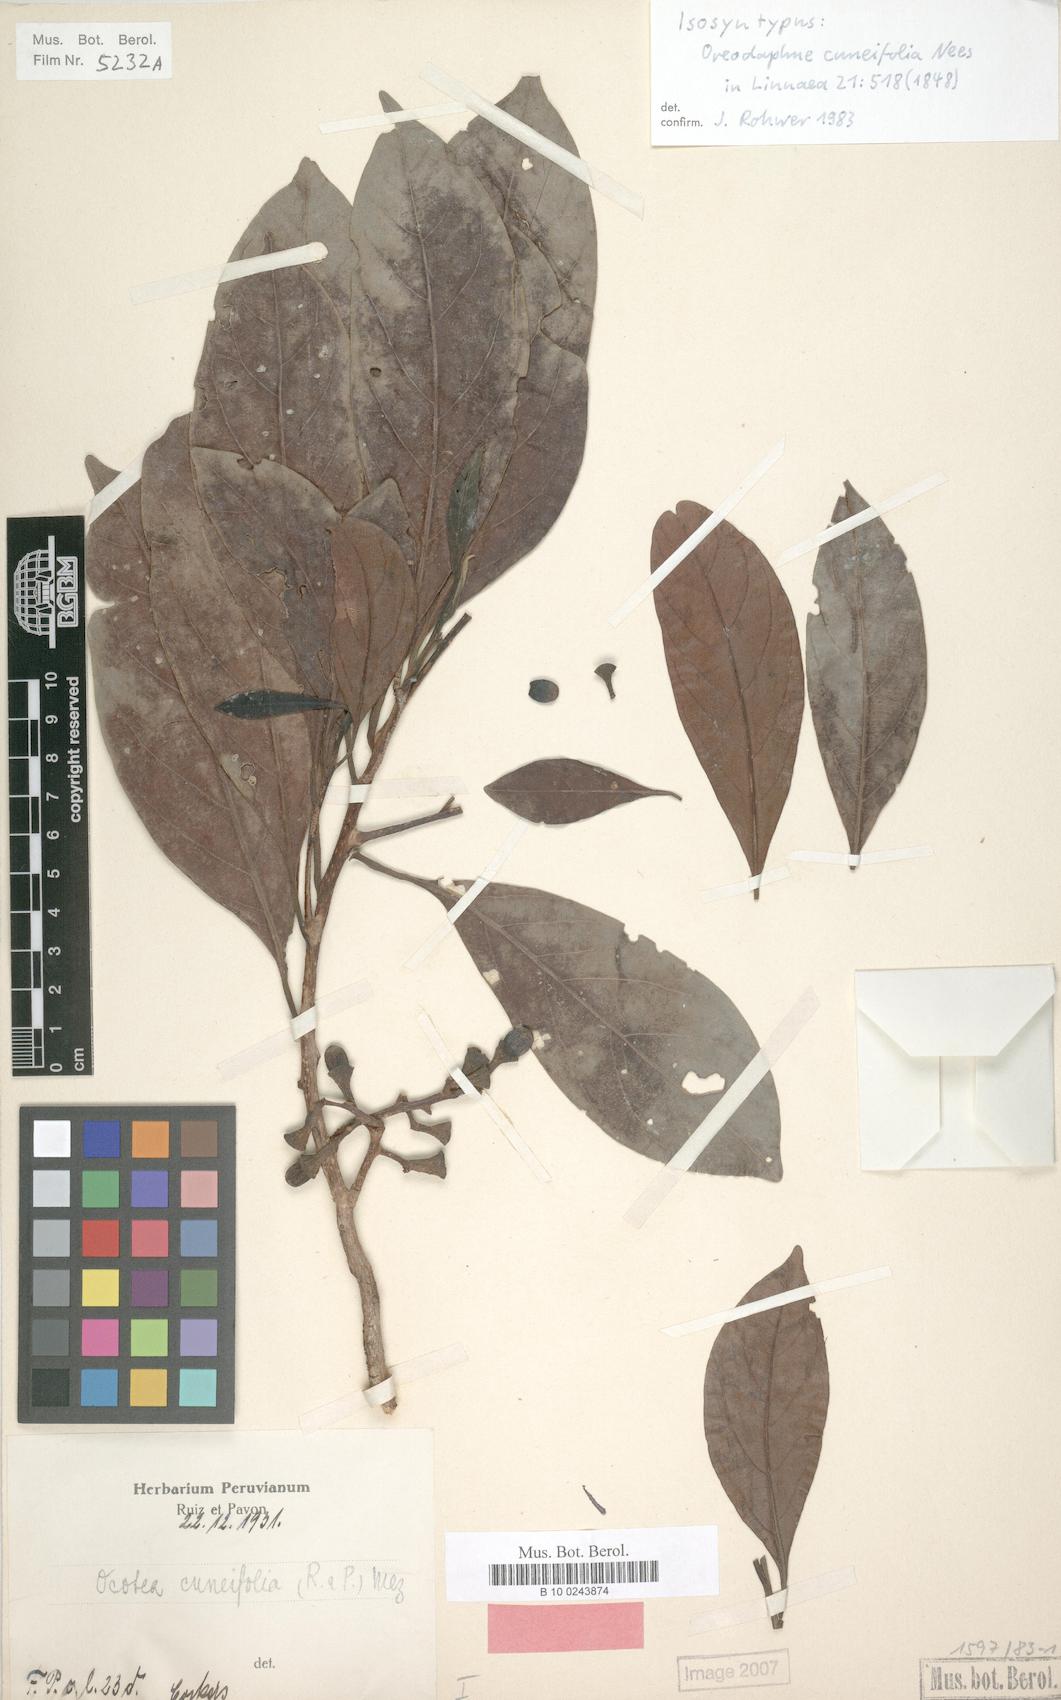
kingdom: Plantae
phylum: Tracheophyta
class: Magnoliopsida
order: Laurales
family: Lauraceae
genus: Ocotea
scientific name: Ocotea cuneifolia
